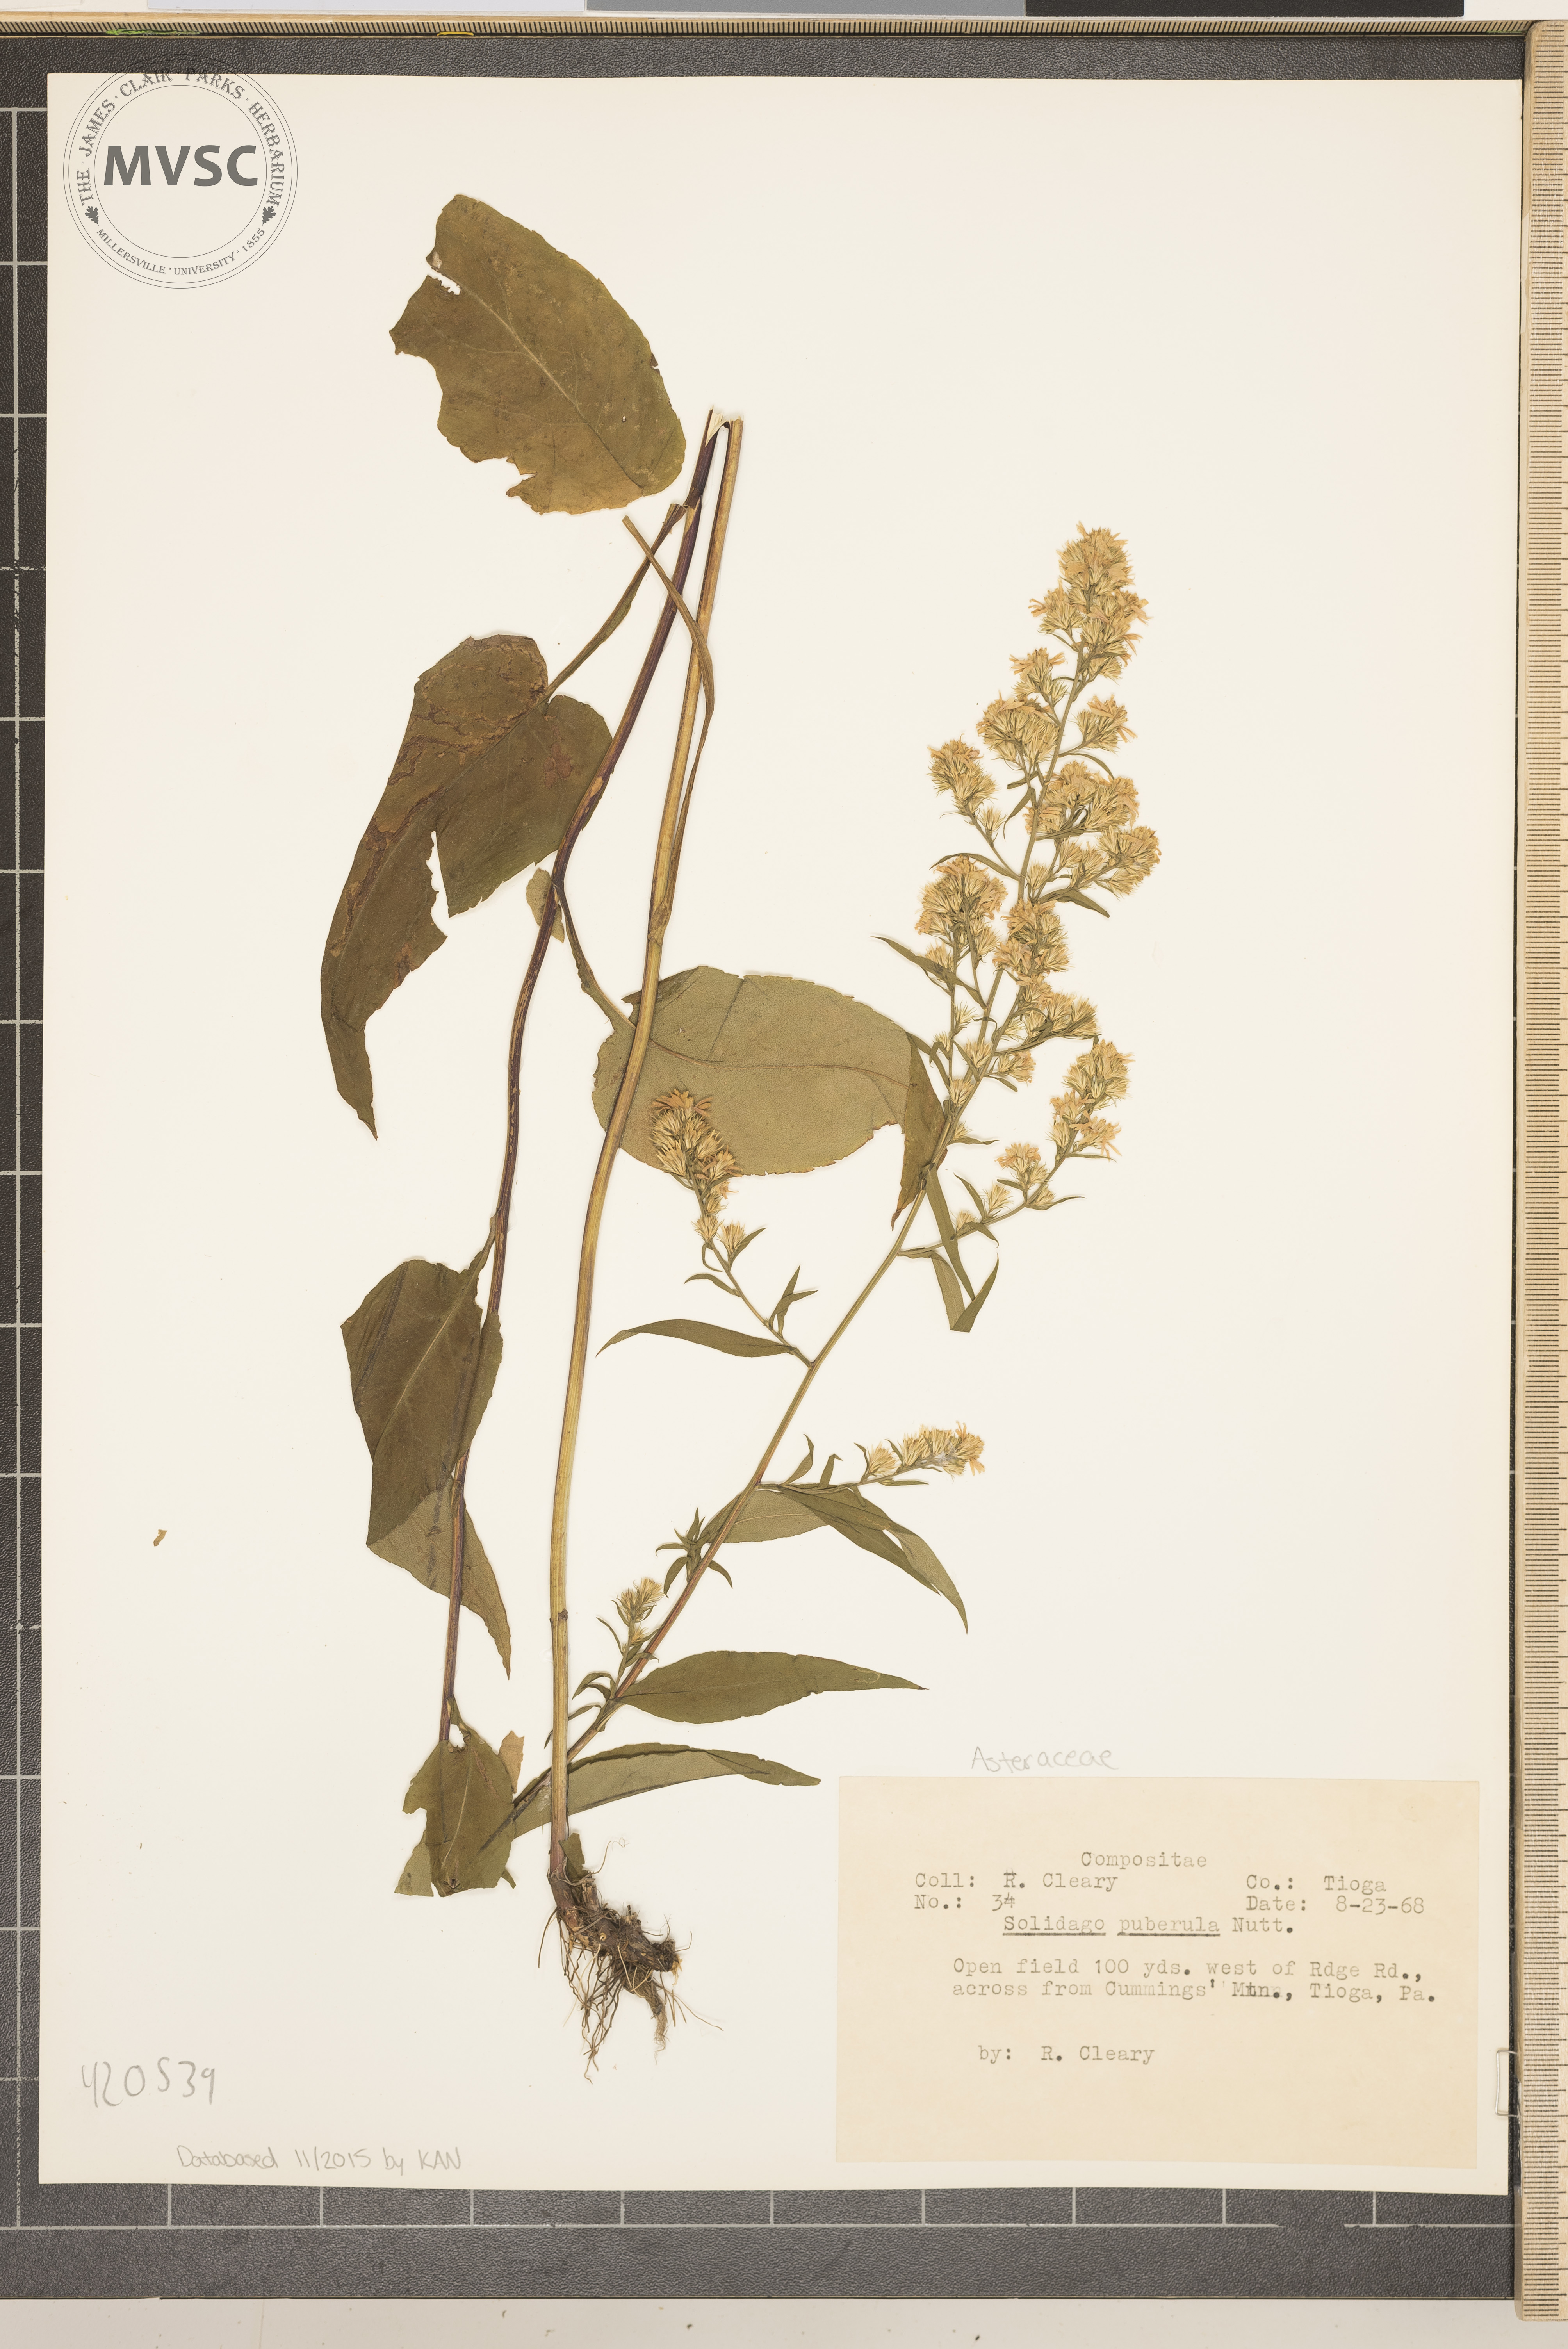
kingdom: Plantae
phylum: Tracheophyta
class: Magnoliopsida
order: Asterales
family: Asteraceae
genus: Solidago
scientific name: Solidago puberula
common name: Downy Goldenrod
